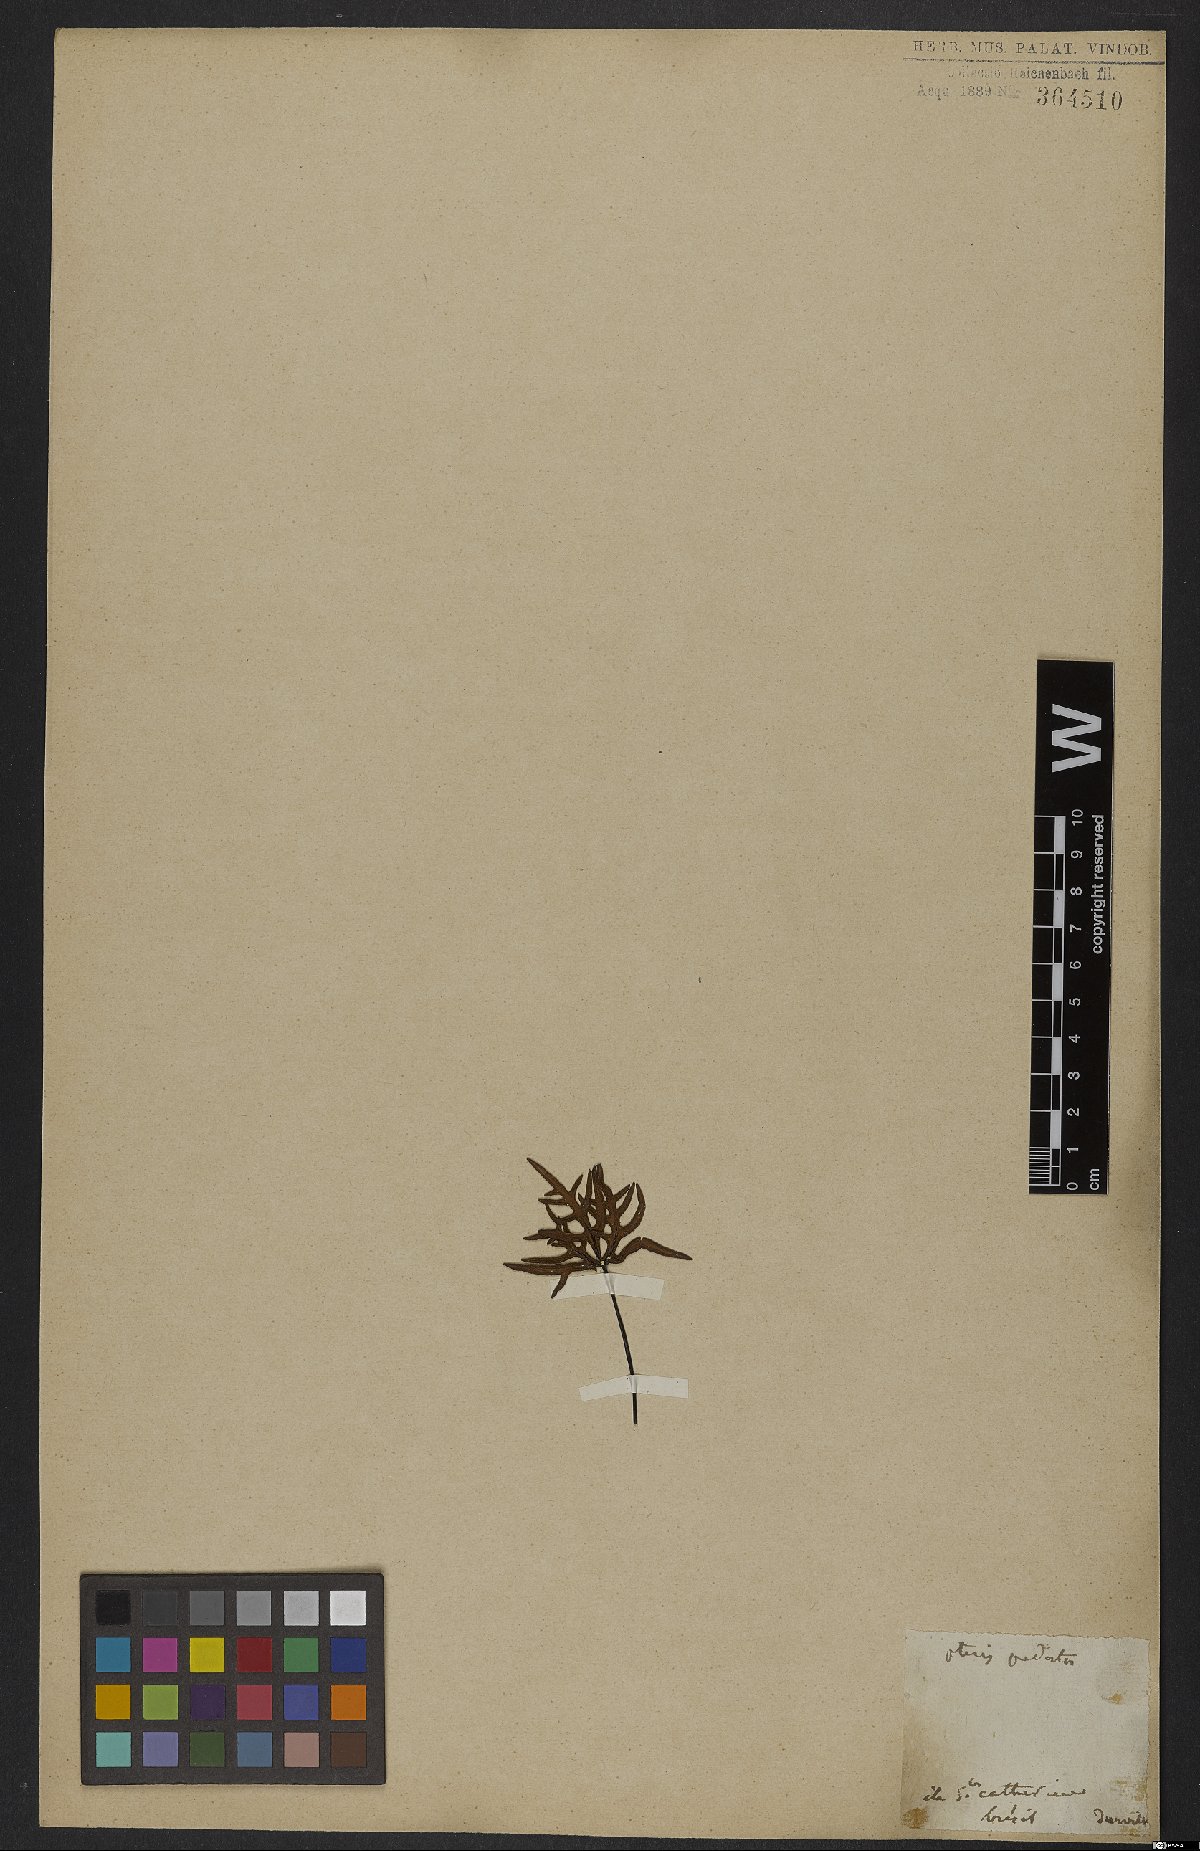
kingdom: Plantae
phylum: Tracheophyta
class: Polypodiopsida
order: Polypodiales
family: Pteridaceae
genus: Doryopteris
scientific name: Doryopteris pedata
